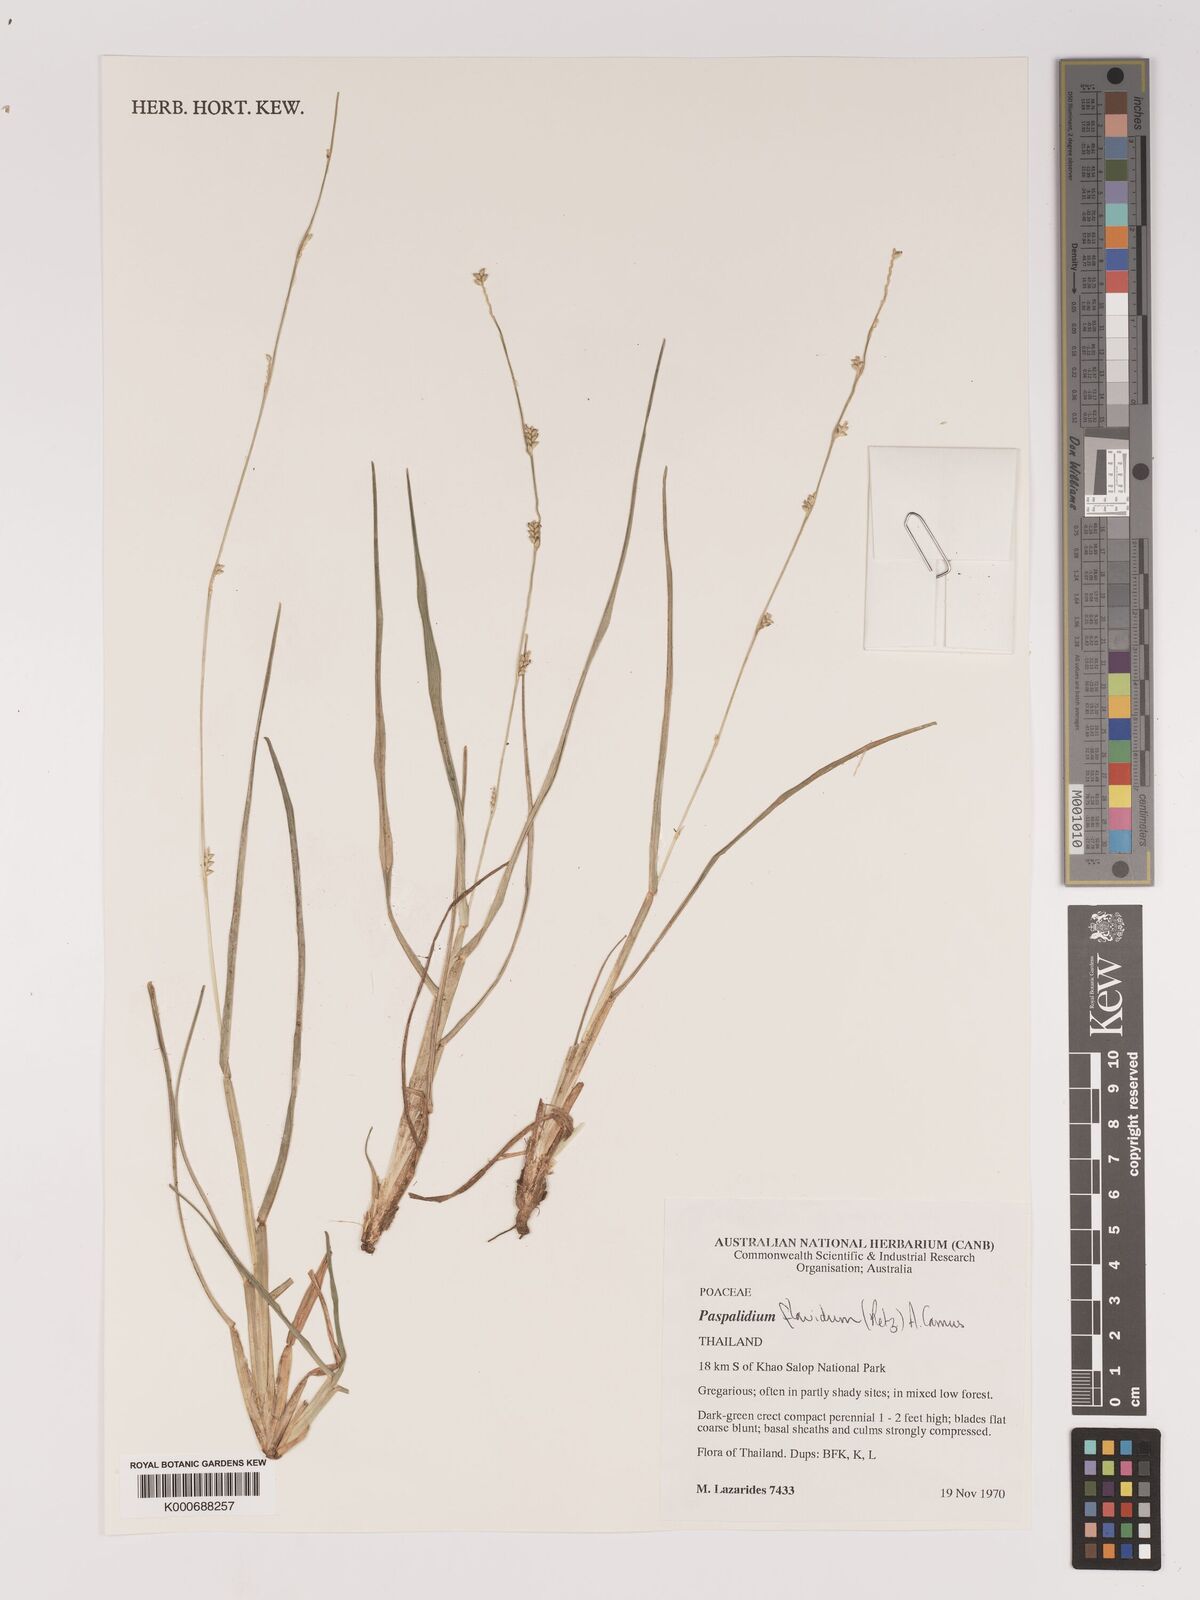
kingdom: Plantae
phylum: Tracheophyta
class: Liliopsida
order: Poales
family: Poaceae
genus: Setaria
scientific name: Setaria flavida
